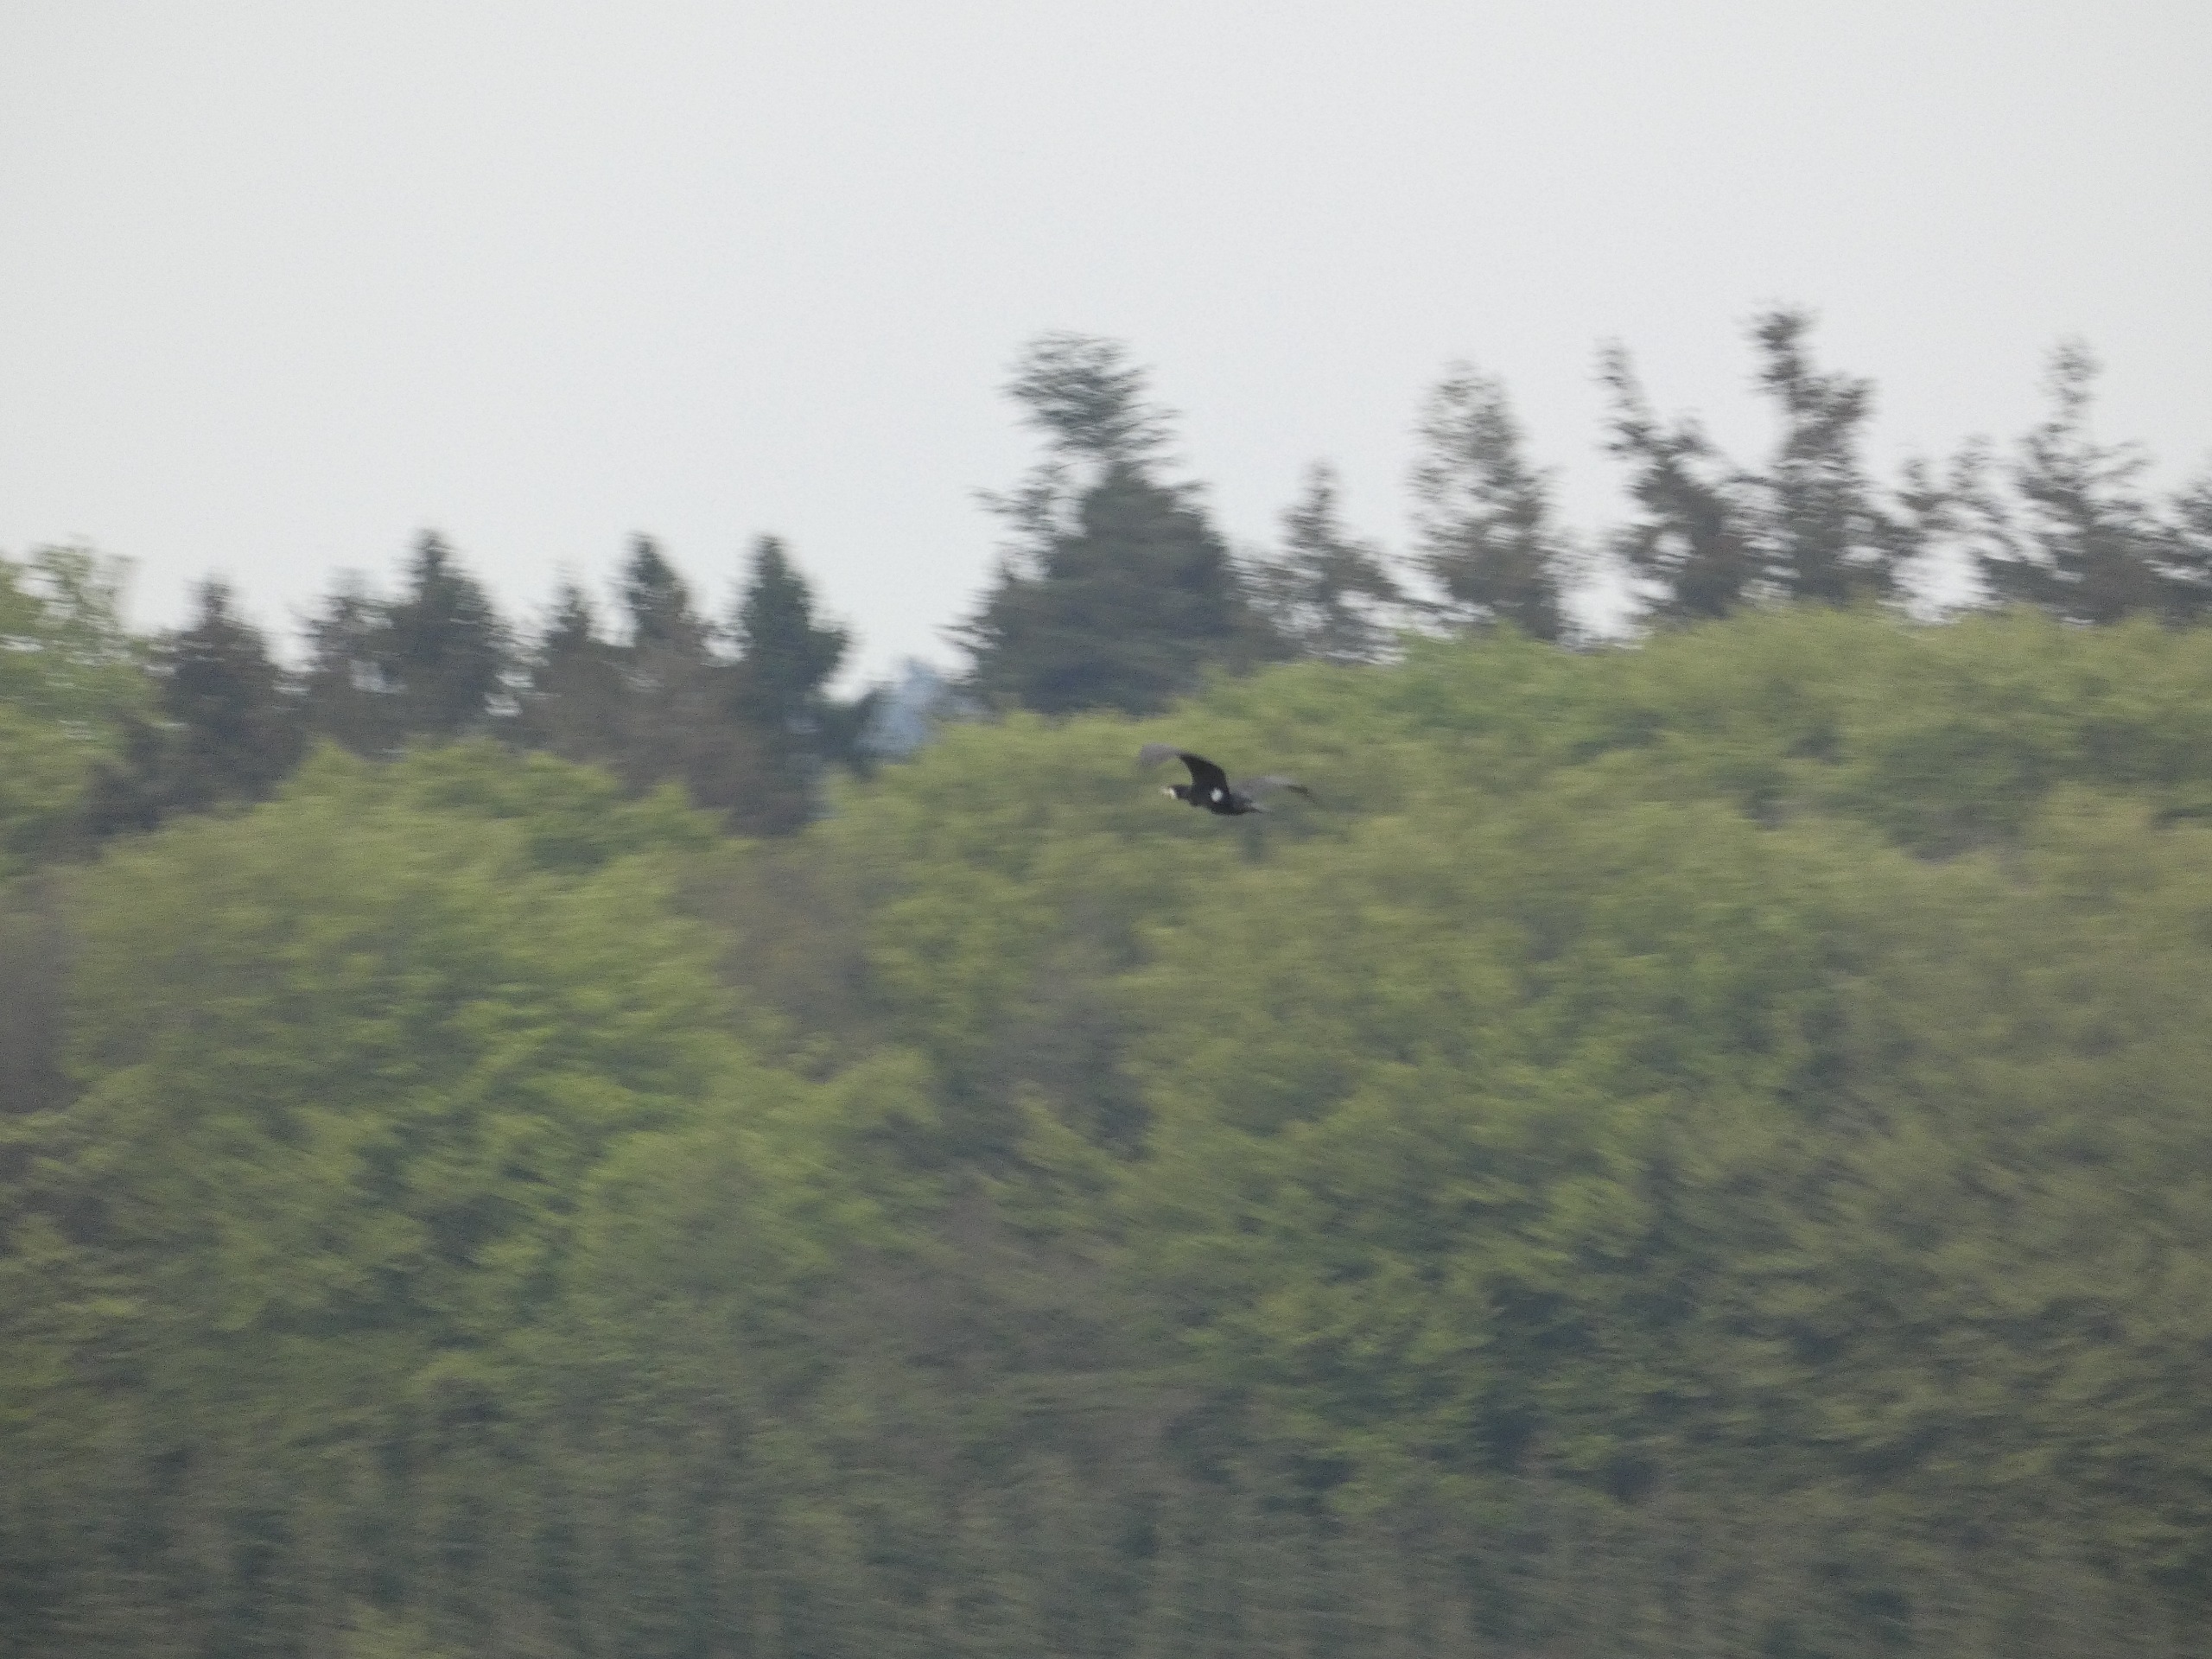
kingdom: Animalia
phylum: Chordata
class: Aves
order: Suliformes
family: Phalacrocoracidae
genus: Phalacrocorax
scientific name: Phalacrocorax carbo
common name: Skarv
